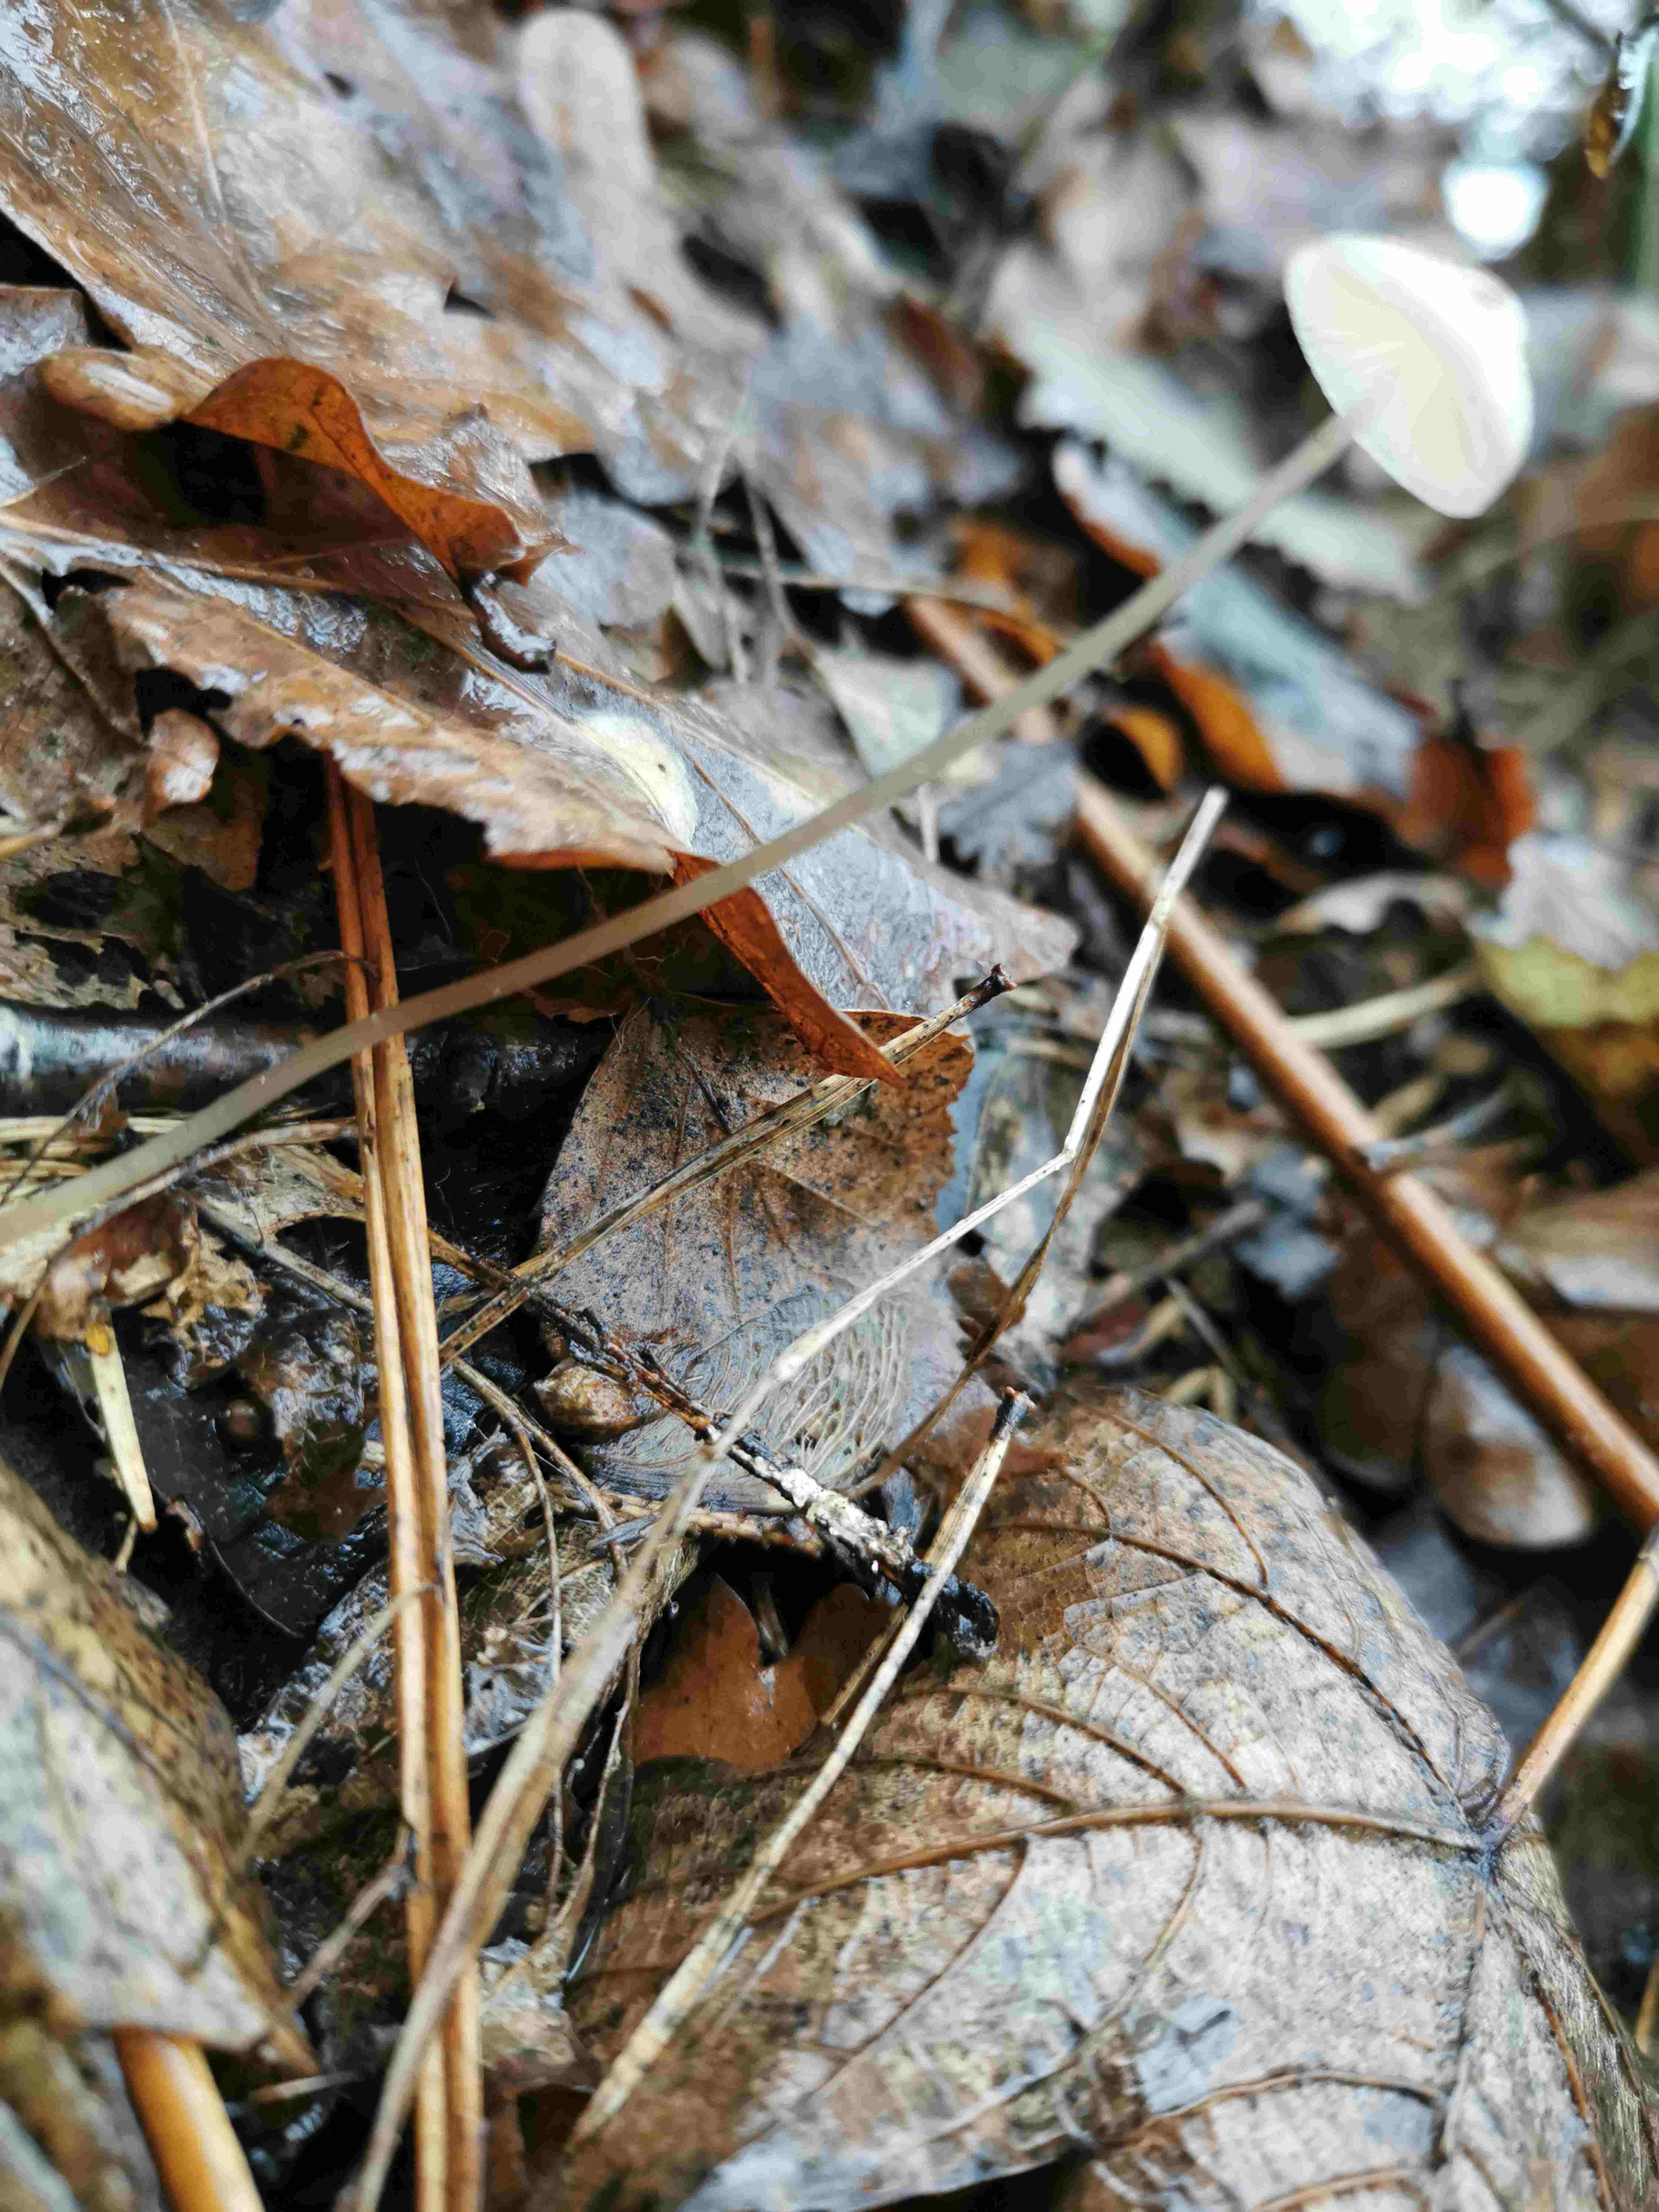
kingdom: Fungi
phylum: Basidiomycota
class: Agaricomycetes
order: Agaricales
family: Mycenaceae
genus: Mycena
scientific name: Mycena vitilis
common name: blankstokket huesvamp
